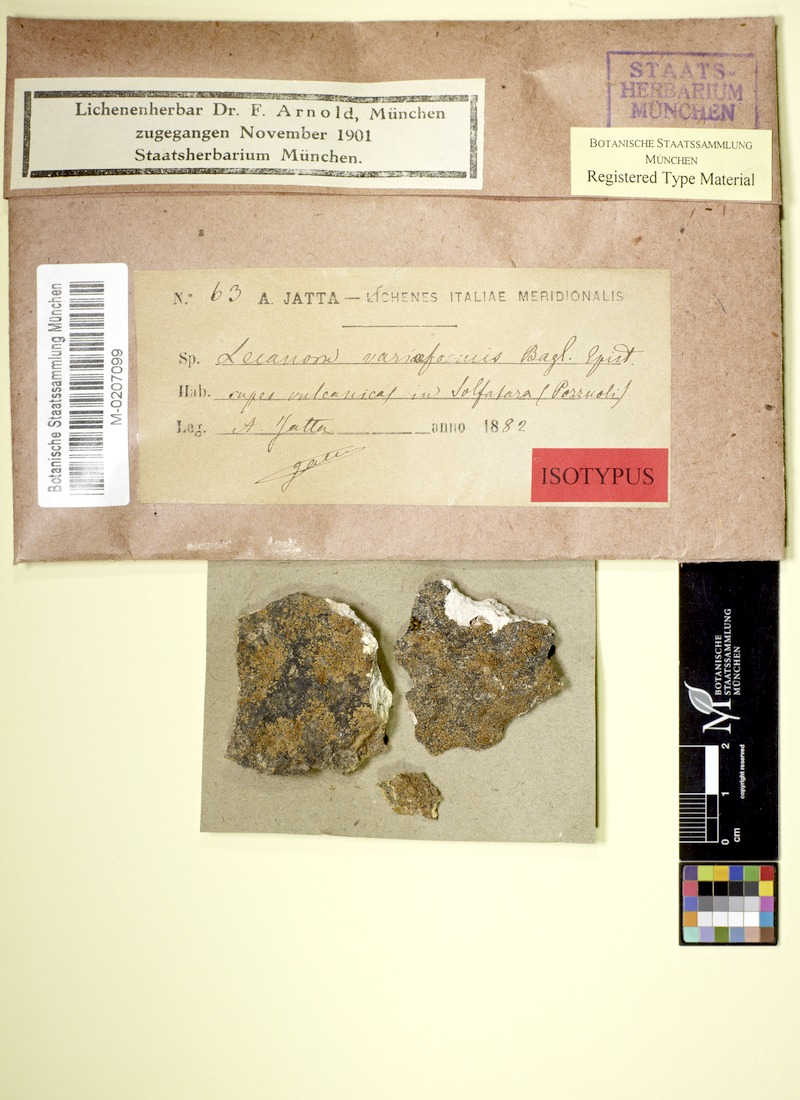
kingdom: Fungi
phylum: Ascomycota
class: Lecanoromycetes
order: Lecanorales
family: Lecanoraceae
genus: Lecanora
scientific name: Lecanora
